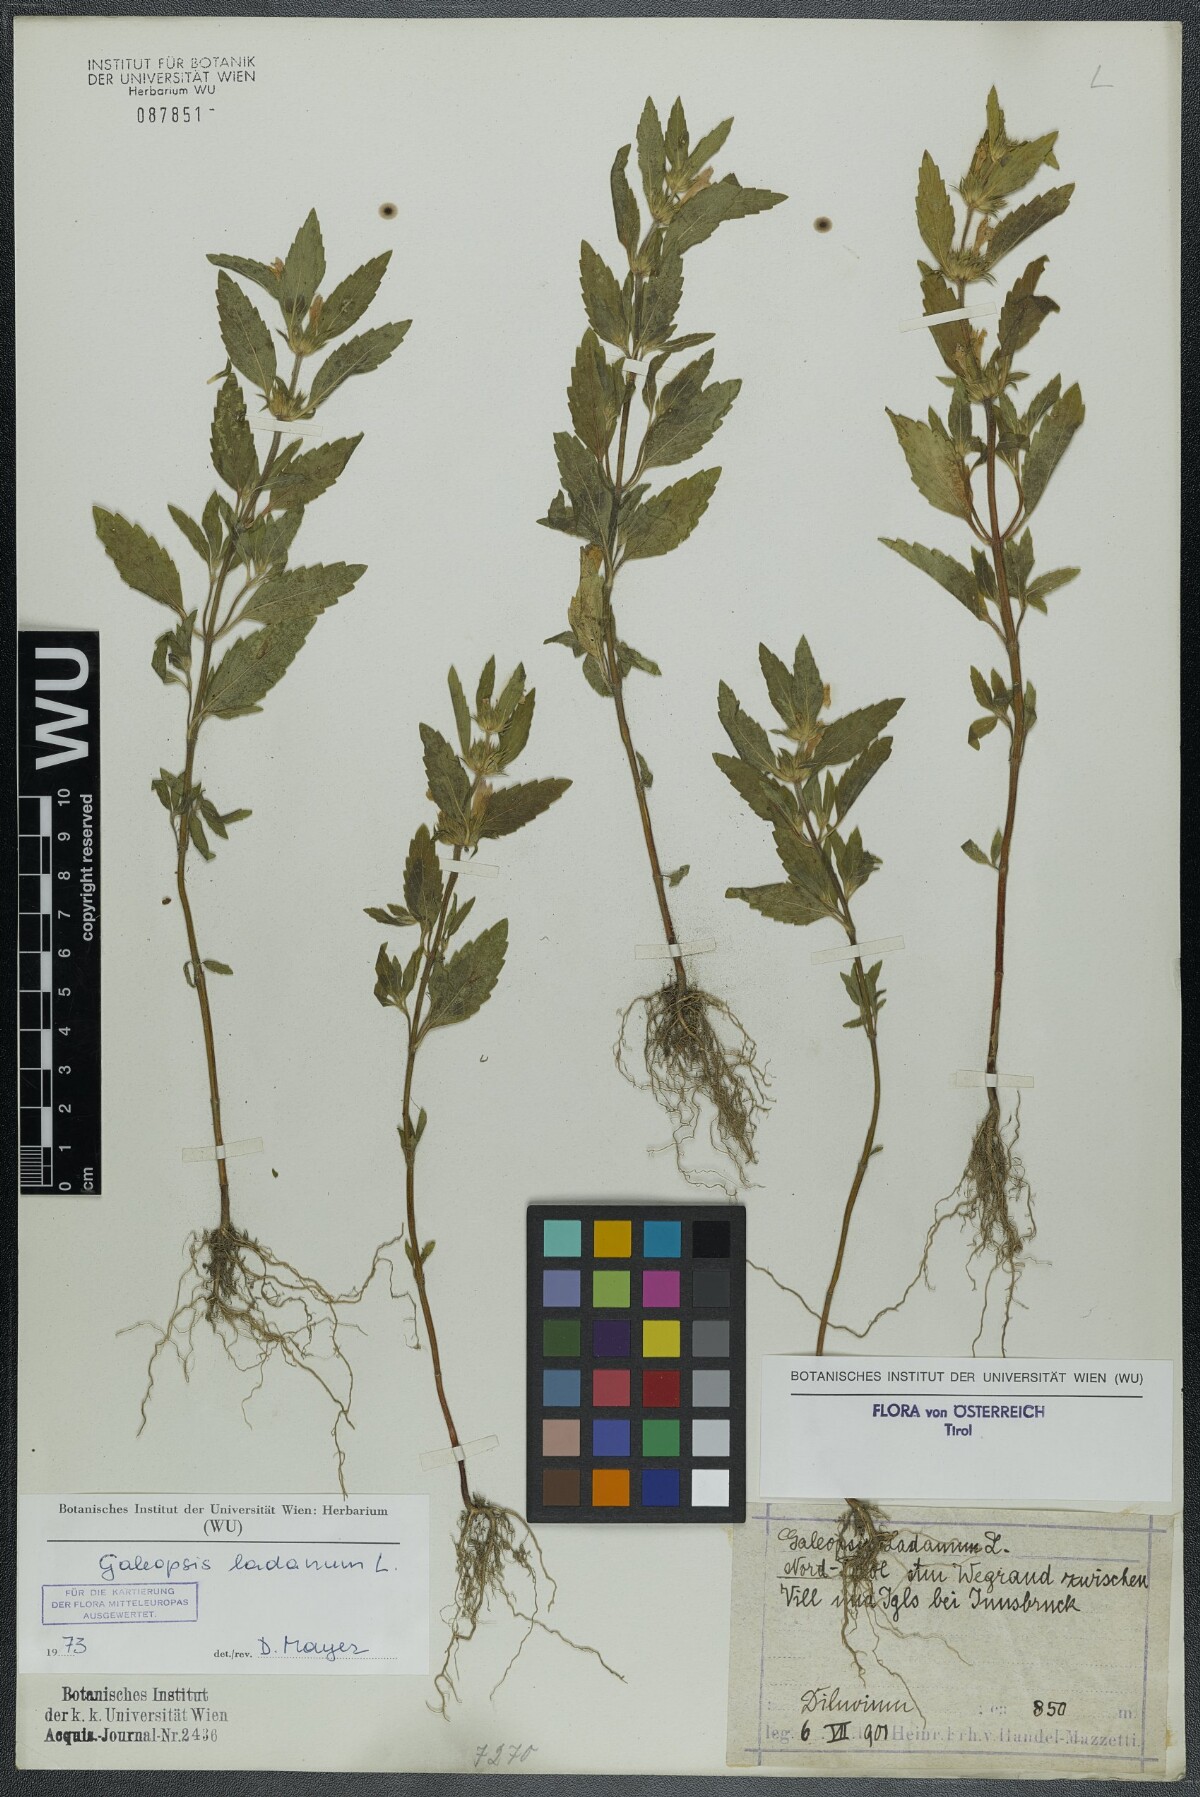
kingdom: Plantae
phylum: Tracheophyta
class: Magnoliopsida
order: Lamiales
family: Lamiaceae
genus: Galeopsis
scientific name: Galeopsis ladanum
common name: Broad-leaved hemp-nettle
